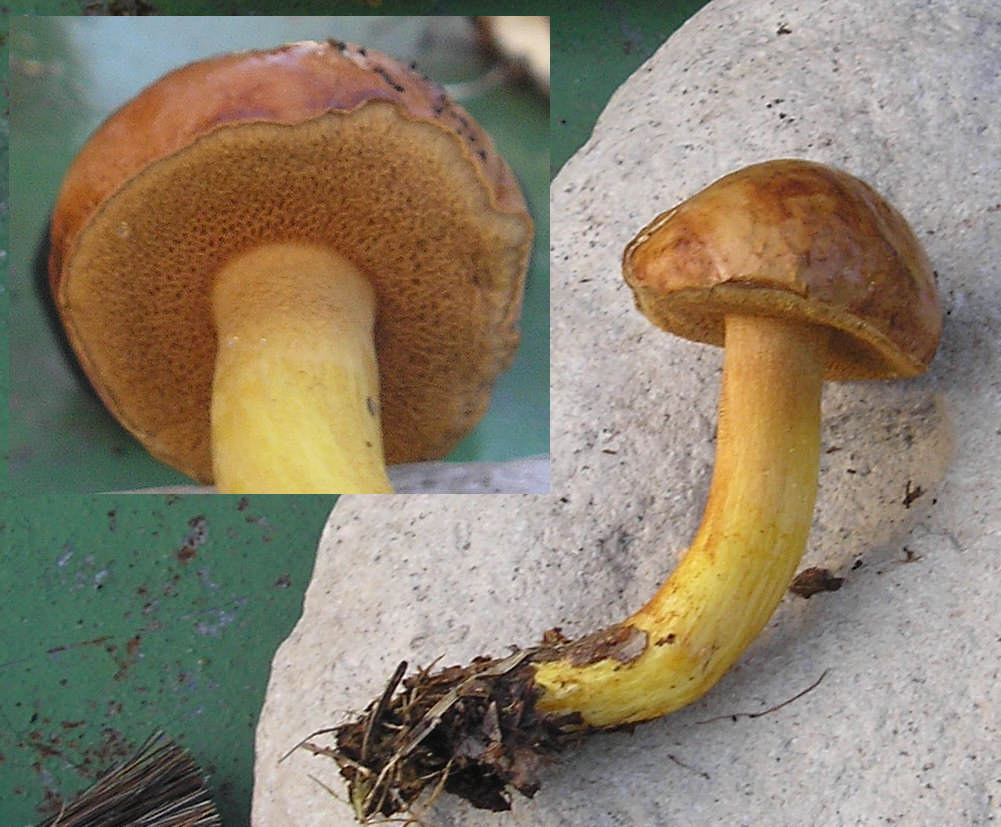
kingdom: Fungi
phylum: Basidiomycota
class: Agaricomycetes
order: Boletales
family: Boletaceae
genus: Chalciporus
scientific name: Chalciporus piperatus
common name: peberrørhat
